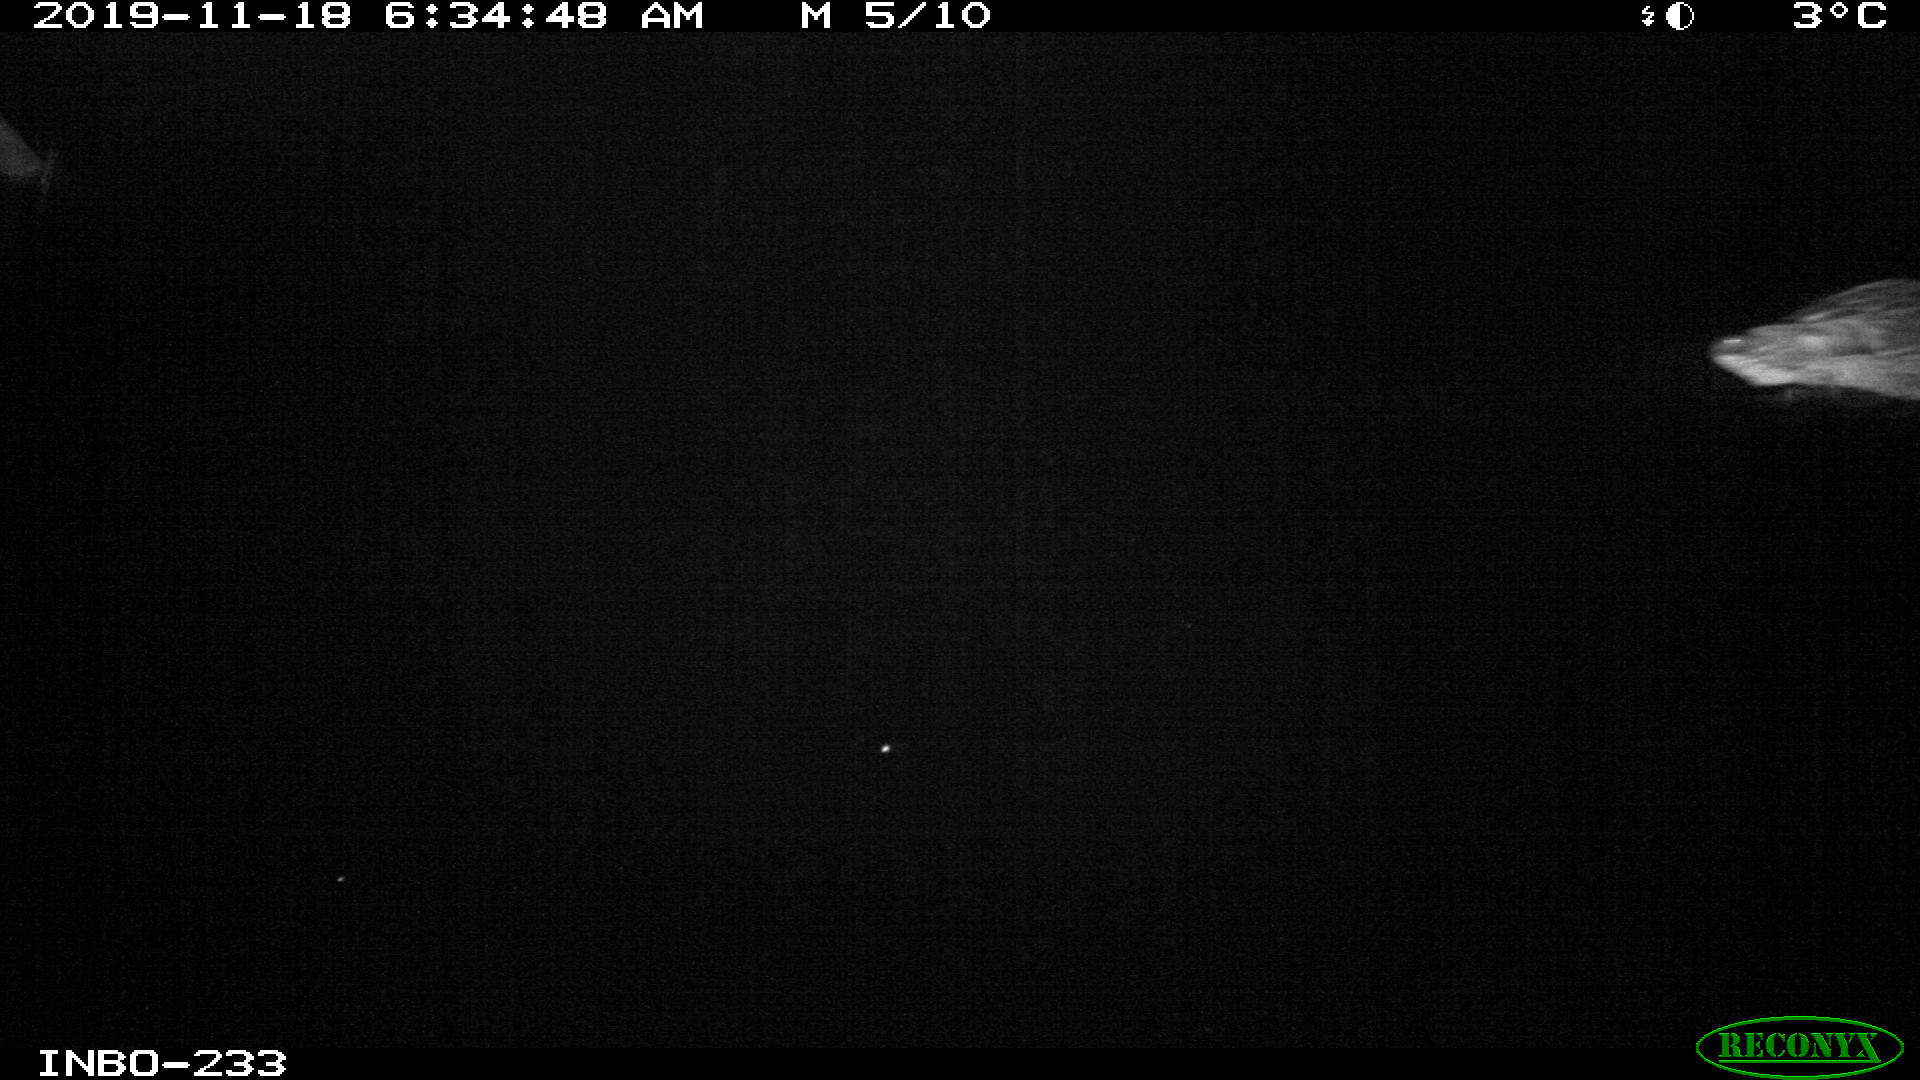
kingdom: Animalia
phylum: Chordata
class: Aves
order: Anseriformes
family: Anatidae
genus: Anas
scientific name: Anas platyrhynchos
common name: Mallard
